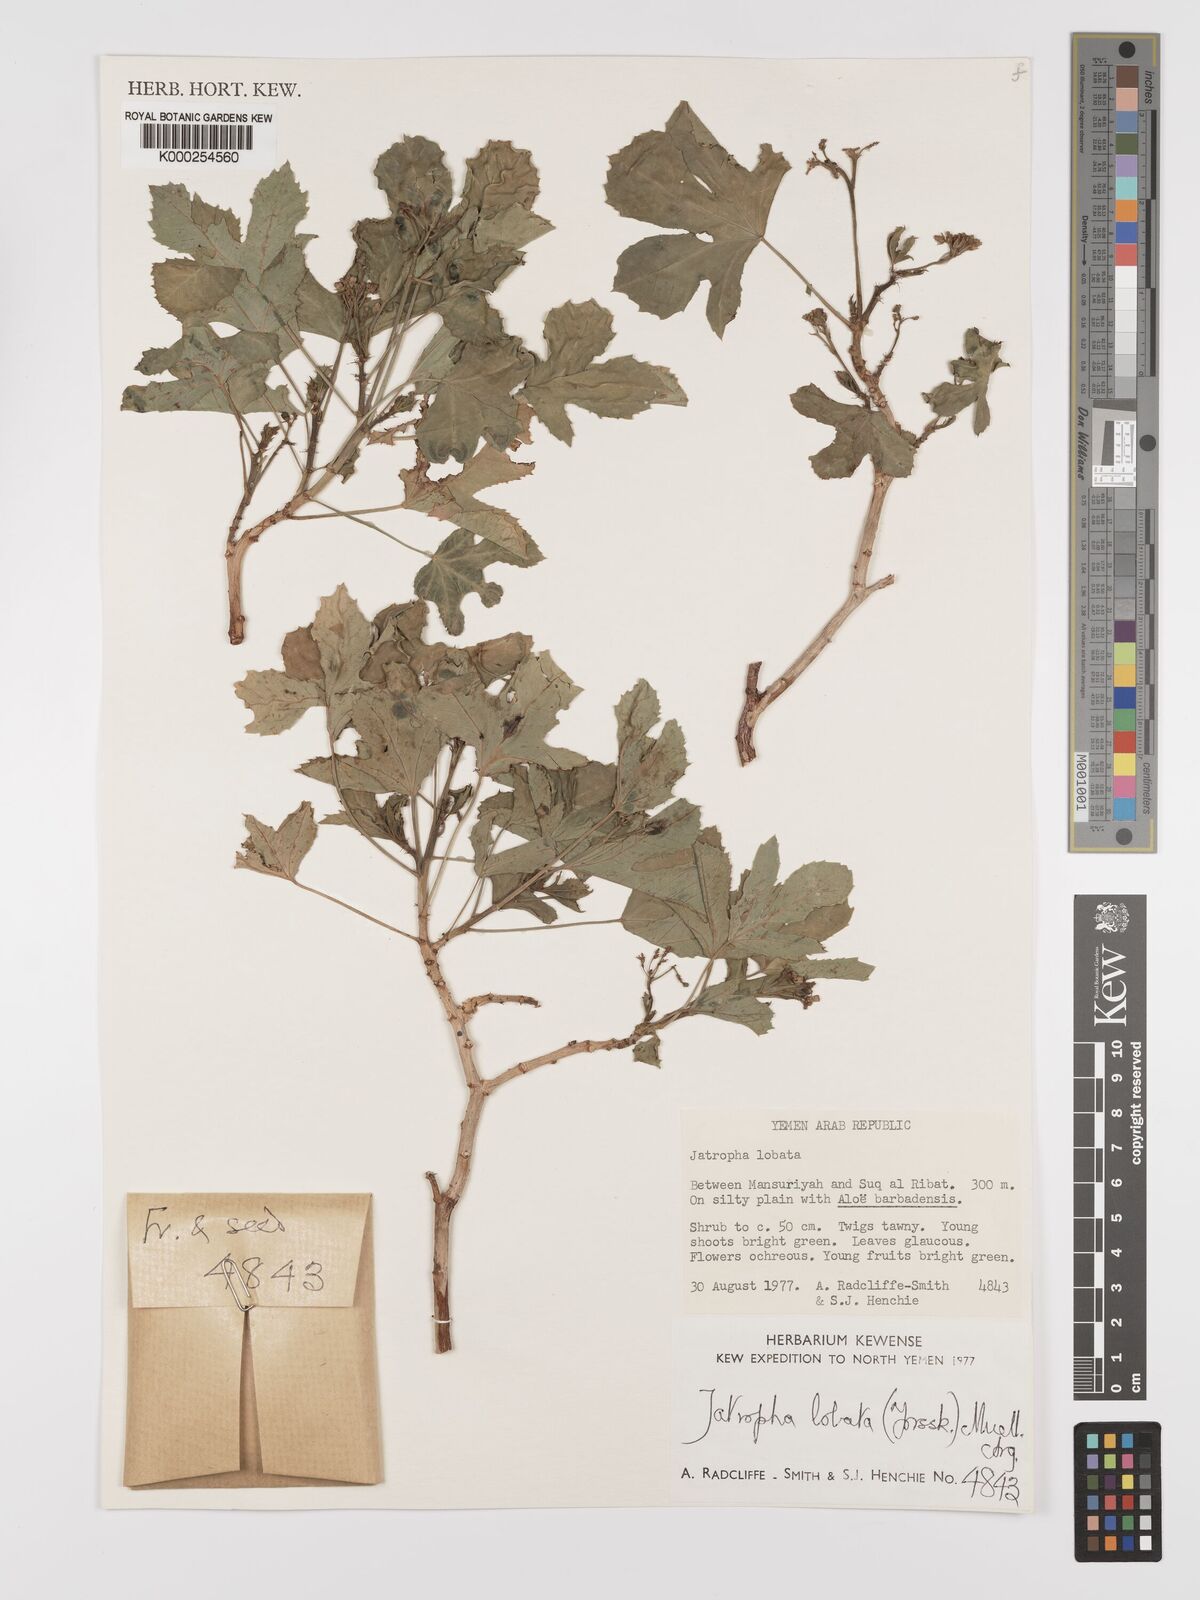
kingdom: Plantae
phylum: Tracheophyta
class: Magnoliopsida
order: Malpighiales
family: Euphorbiaceae
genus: Jatropha
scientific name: Jatropha glauca
